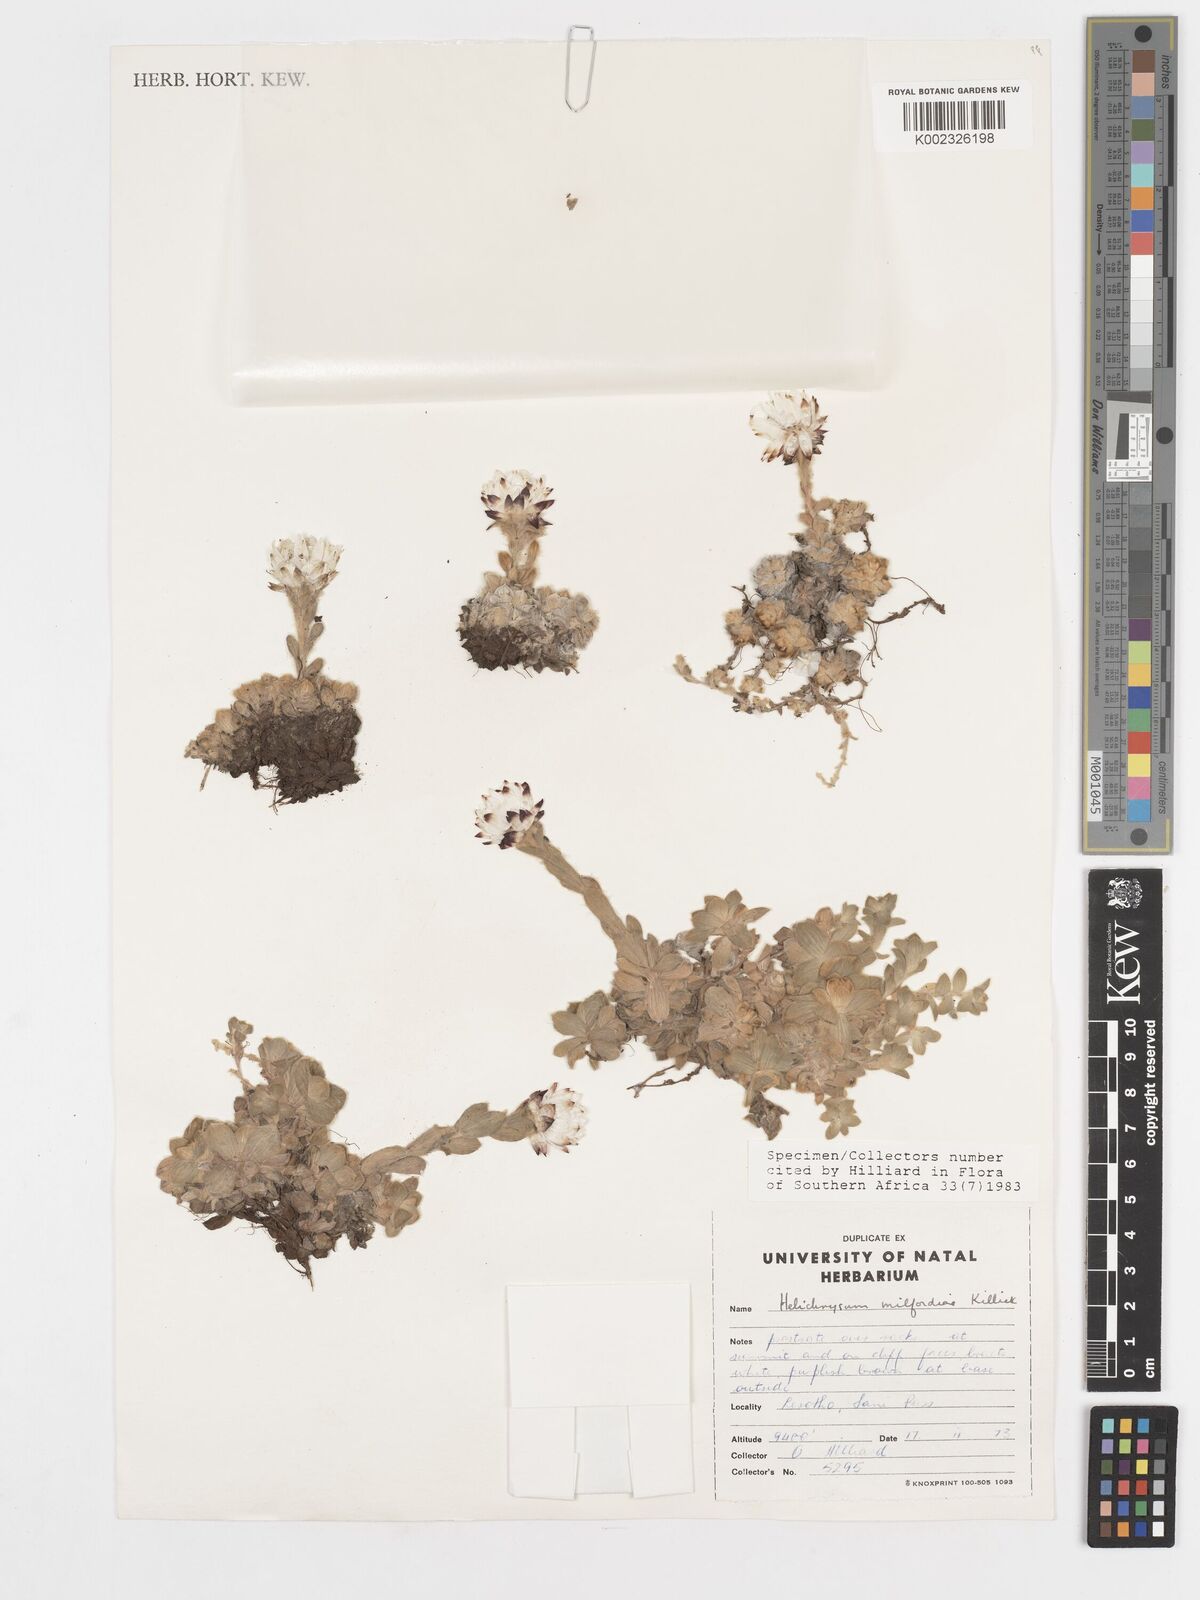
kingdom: Plantae
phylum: Tracheophyta
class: Magnoliopsida
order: Asterales
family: Asteraceae
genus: Helichrysum
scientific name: Helichrysum milfordiae
